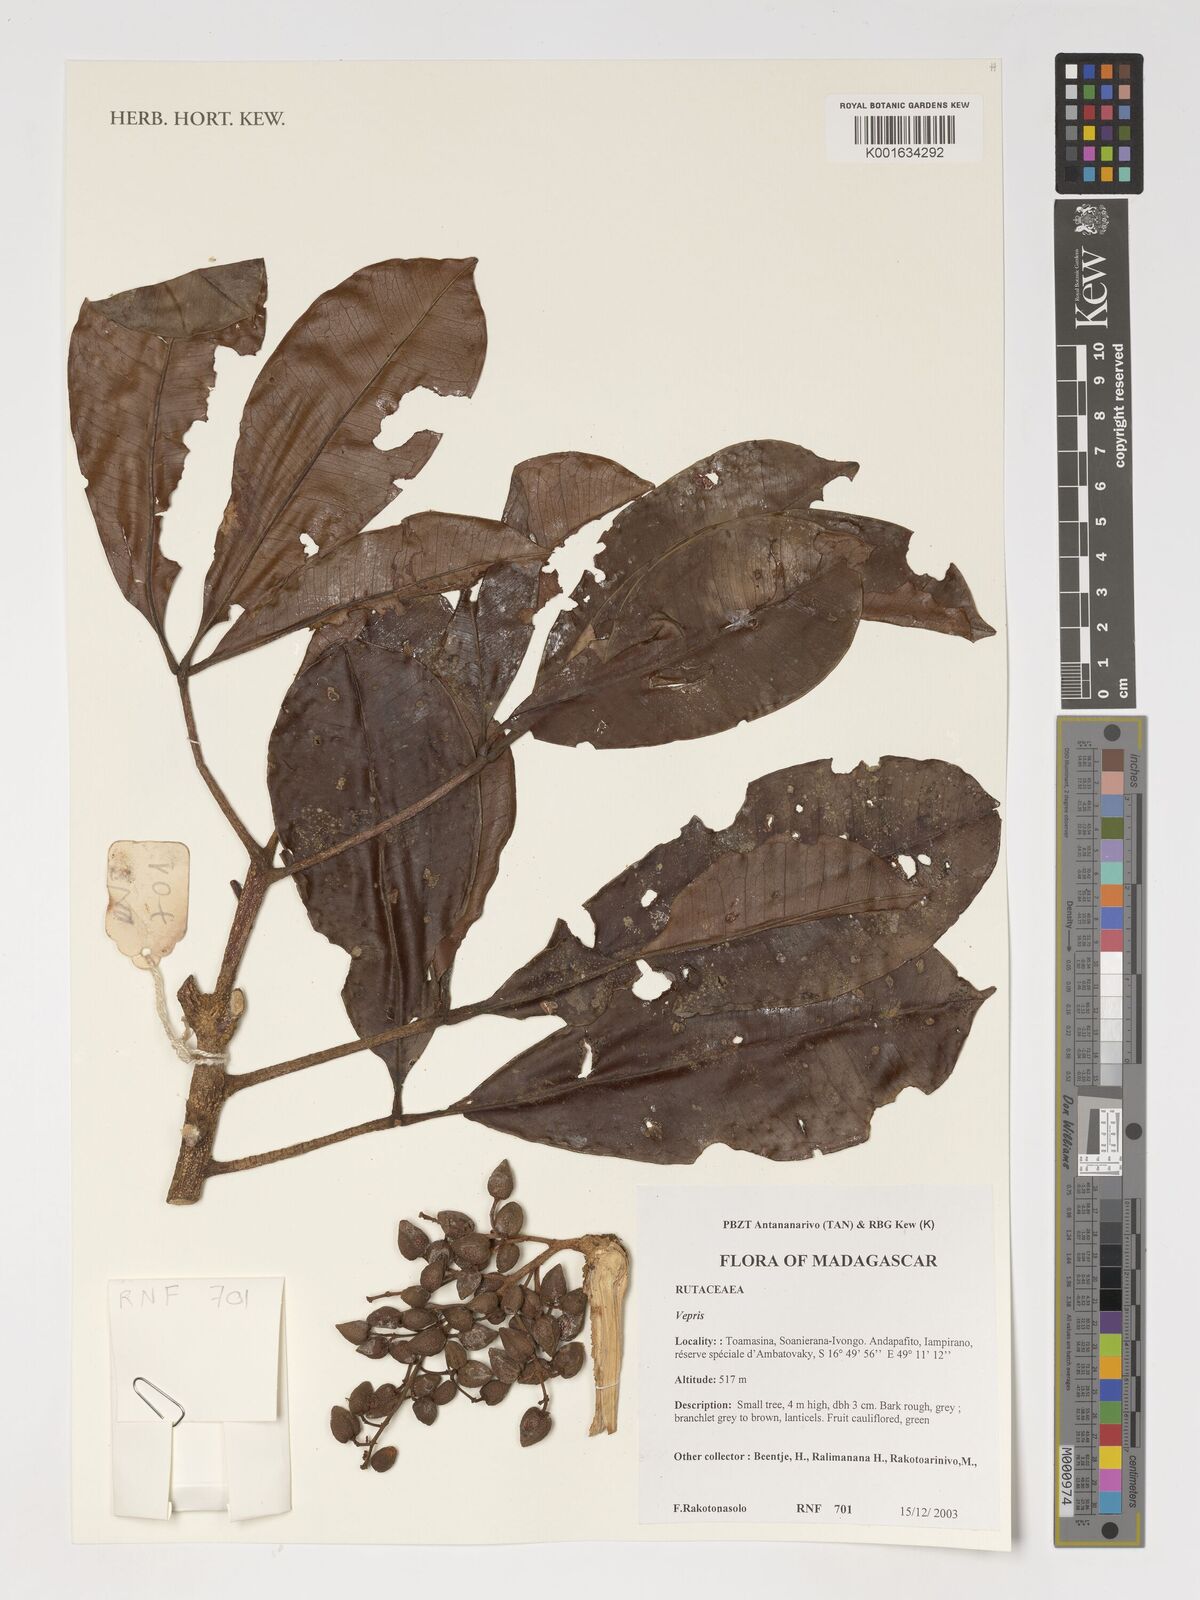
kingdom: Plantae
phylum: Tracheophyta
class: Magnoliopsida
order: Sapindales
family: Rutaceae
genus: Vepris
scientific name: Vepris
